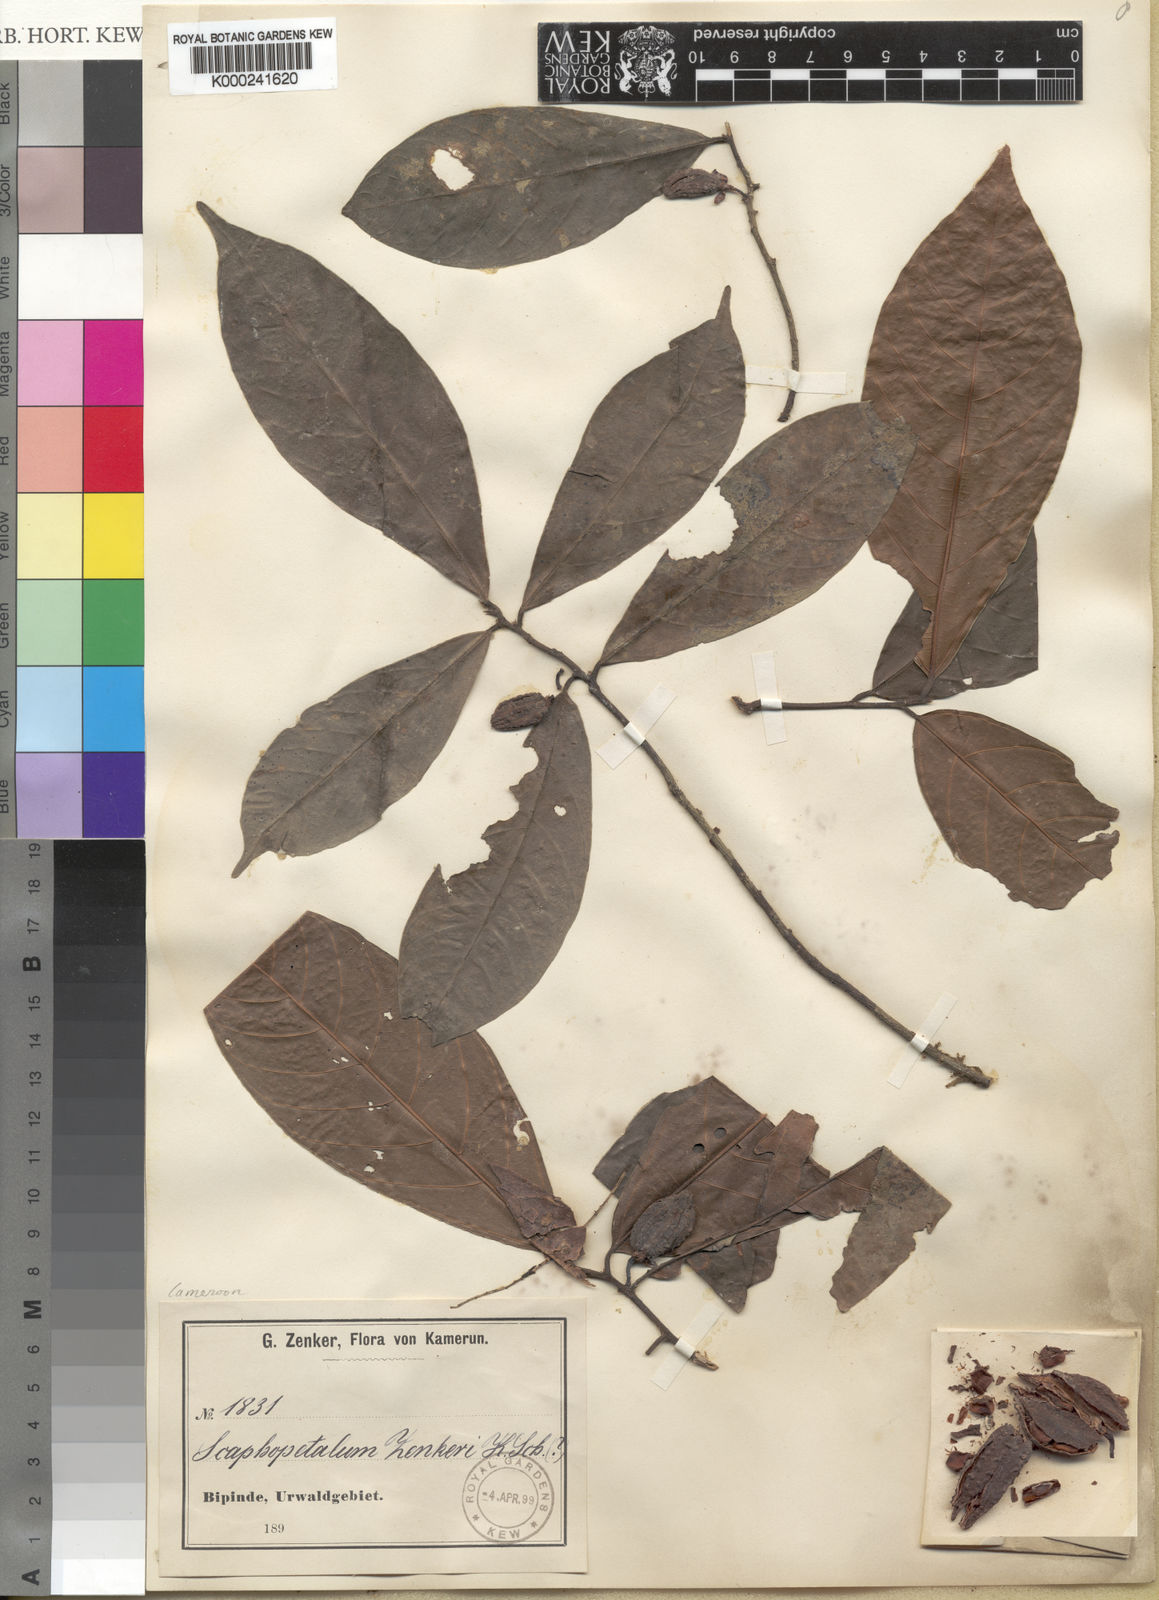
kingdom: Plantae
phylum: Tracheophyta
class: Magnoliopsida
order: Malvales
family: Malvaceae
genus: Scaphopetalum
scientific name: Scaphopetalum zenkeri
